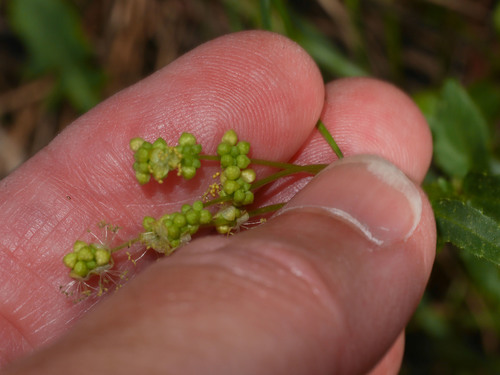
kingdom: Plantae
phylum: Tracheophyta
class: Magnoliopsida
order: Malpighiales
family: Euphorbiaceae
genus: Mercurialis
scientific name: Mercurialis annua
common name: Annual mercury
